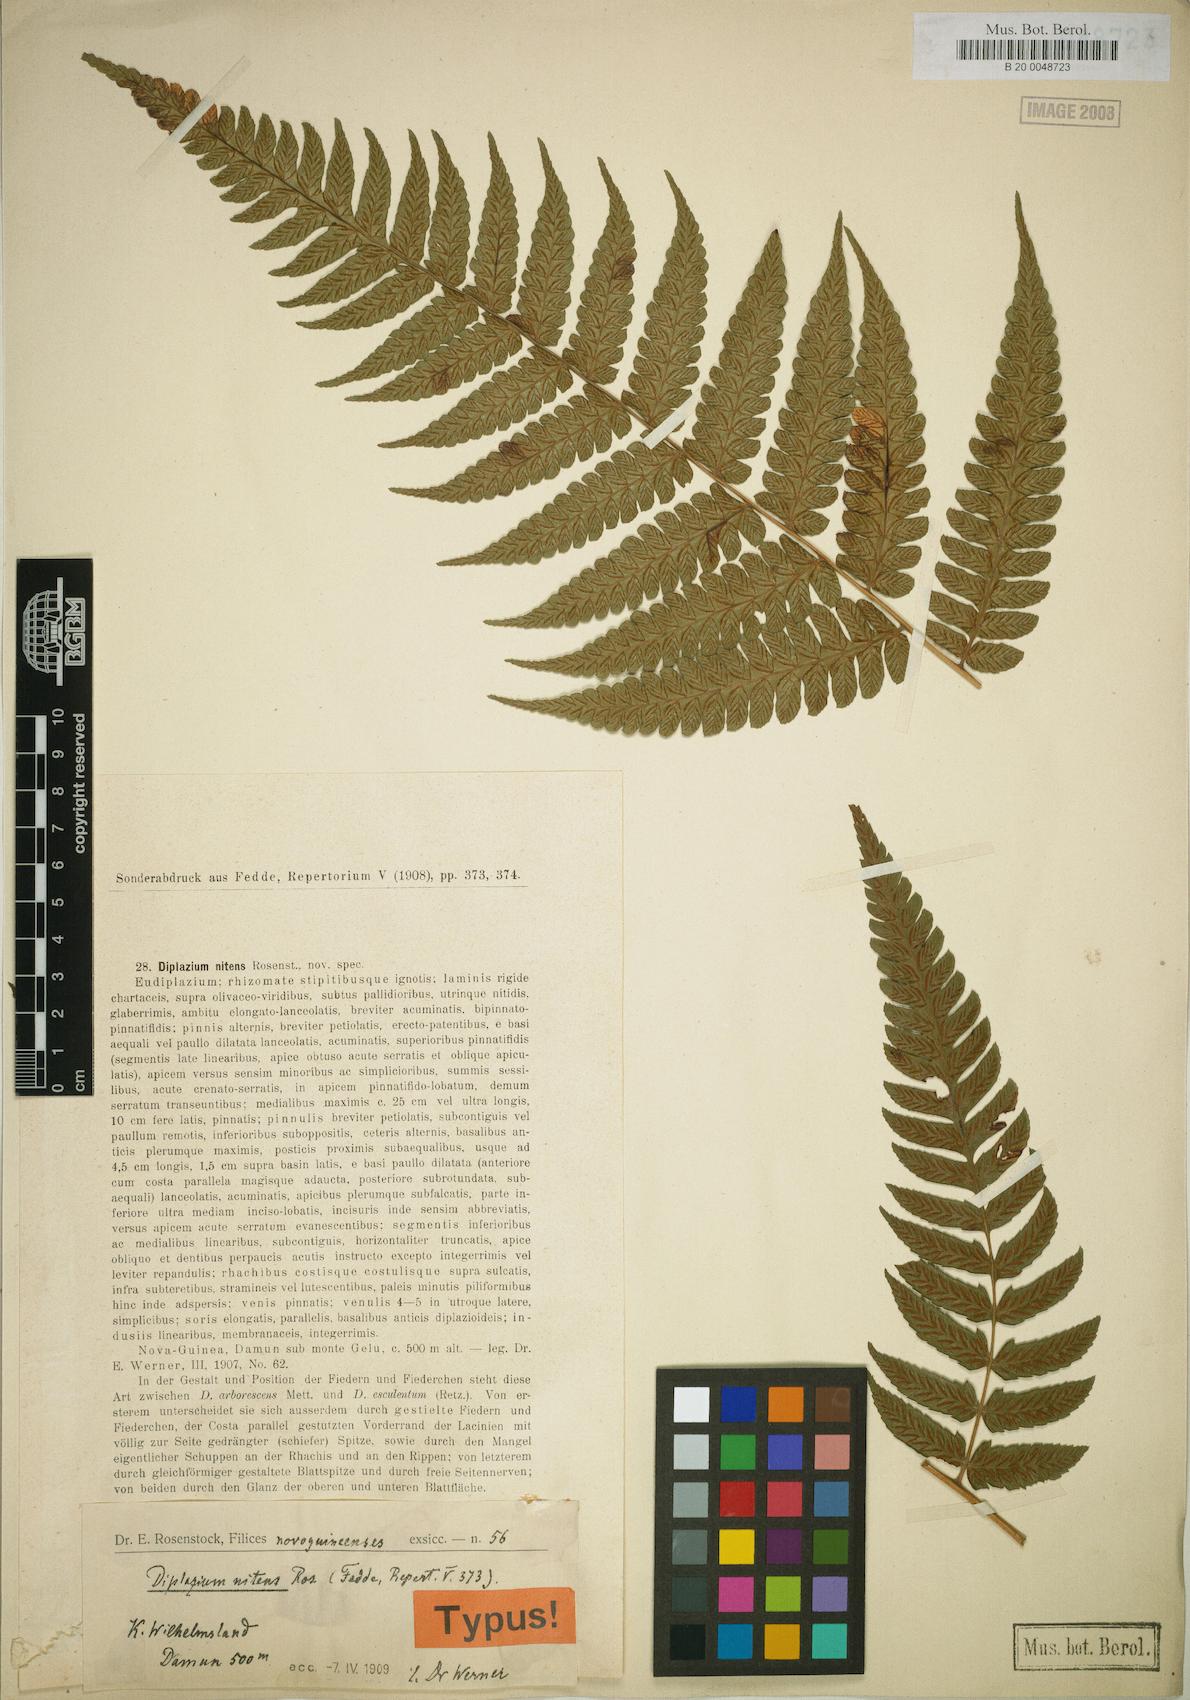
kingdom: Plantae
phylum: Tracheophyta
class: Polypodiopsida
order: Polypodiales
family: Athyriaceae
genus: Diplazium
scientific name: Diplazium nitens
